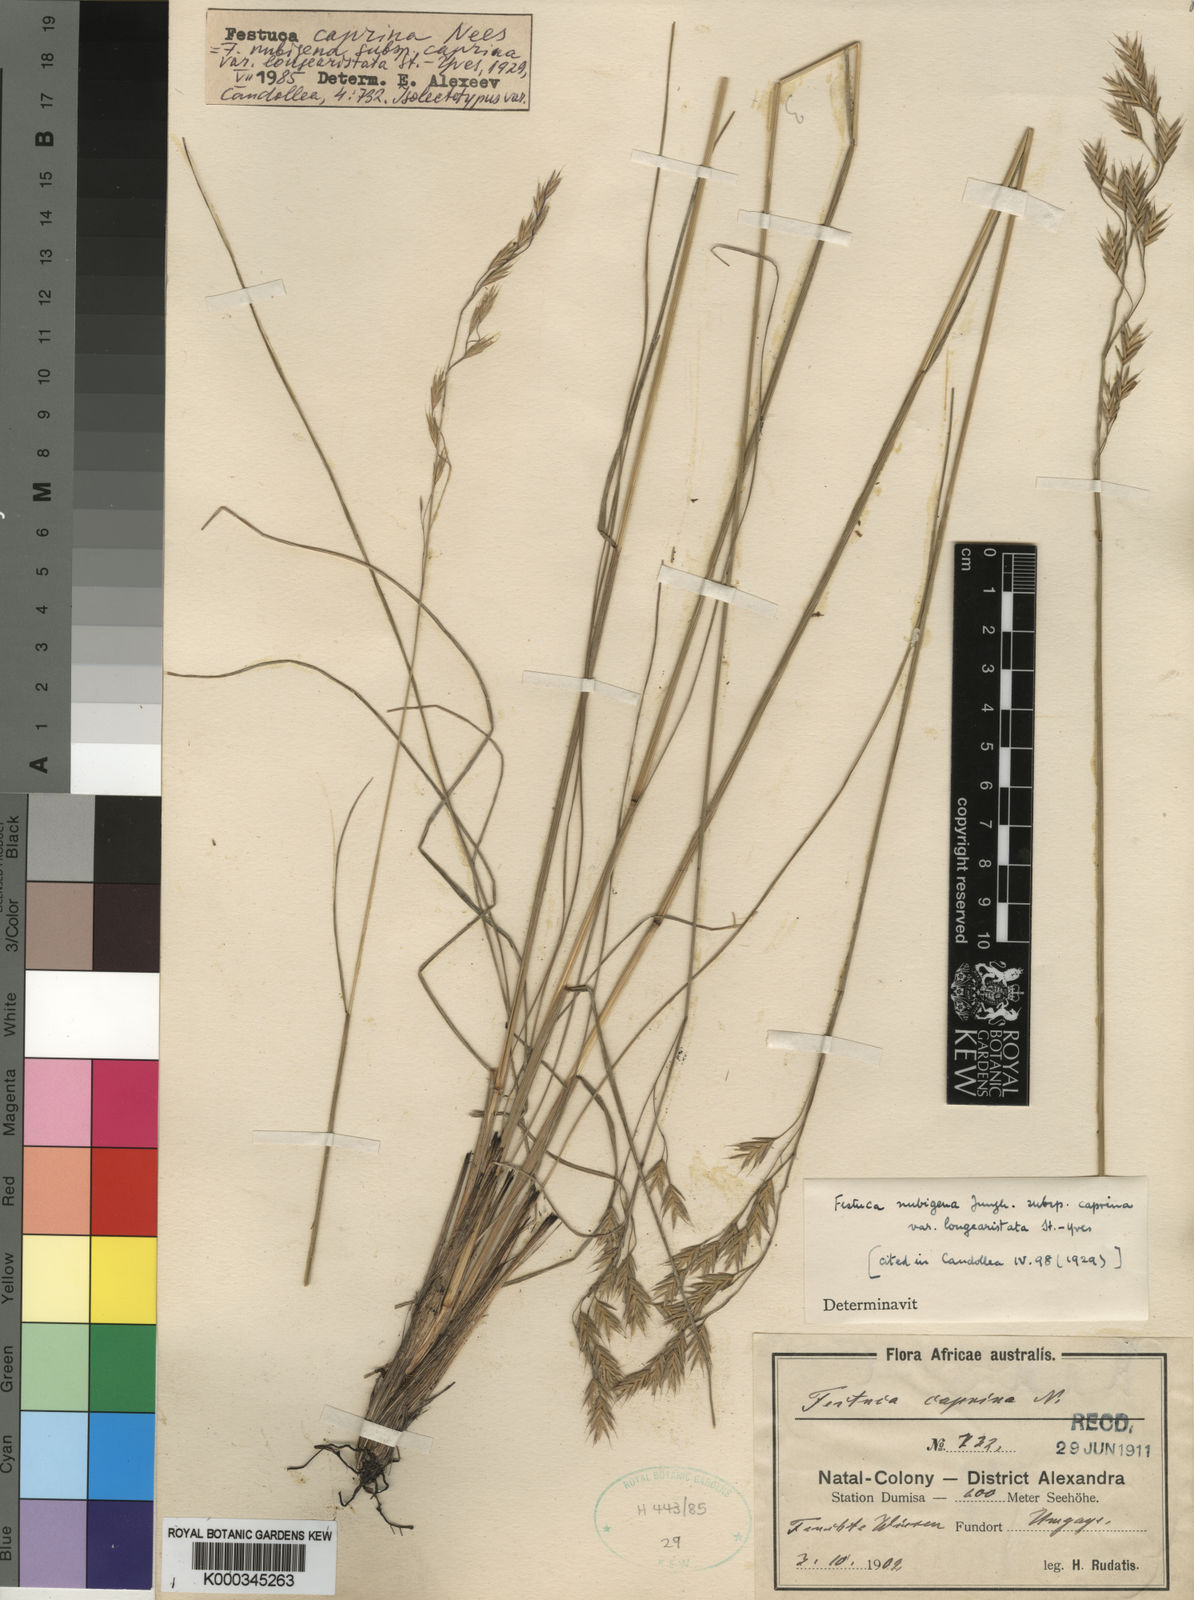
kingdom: Plantae
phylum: Tracheophyta
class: Liliopsida
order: Poales
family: Poaceae
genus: Festuca
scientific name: Festuca caprina
